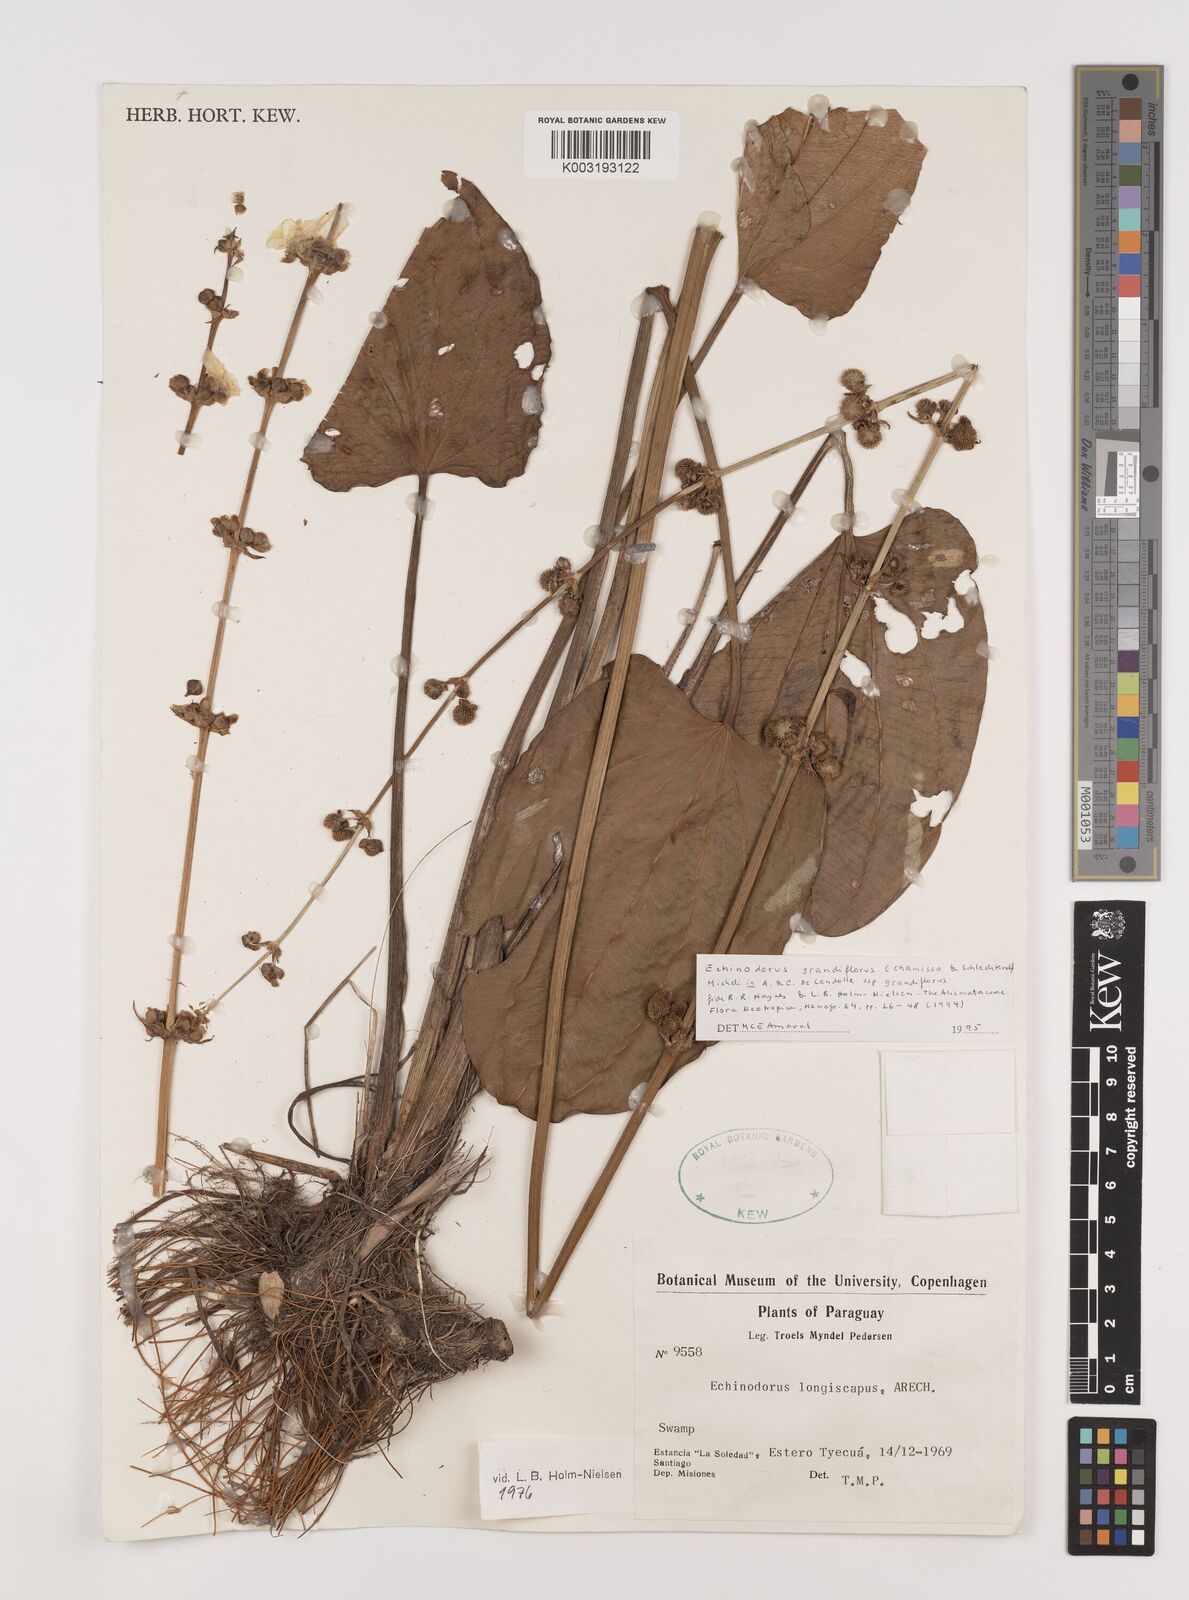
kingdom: Plantae
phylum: Tracheophyta
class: Liliopsida
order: Alismatales
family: Alismataceae
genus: Aquarius
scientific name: Aquarius grandiflorus
